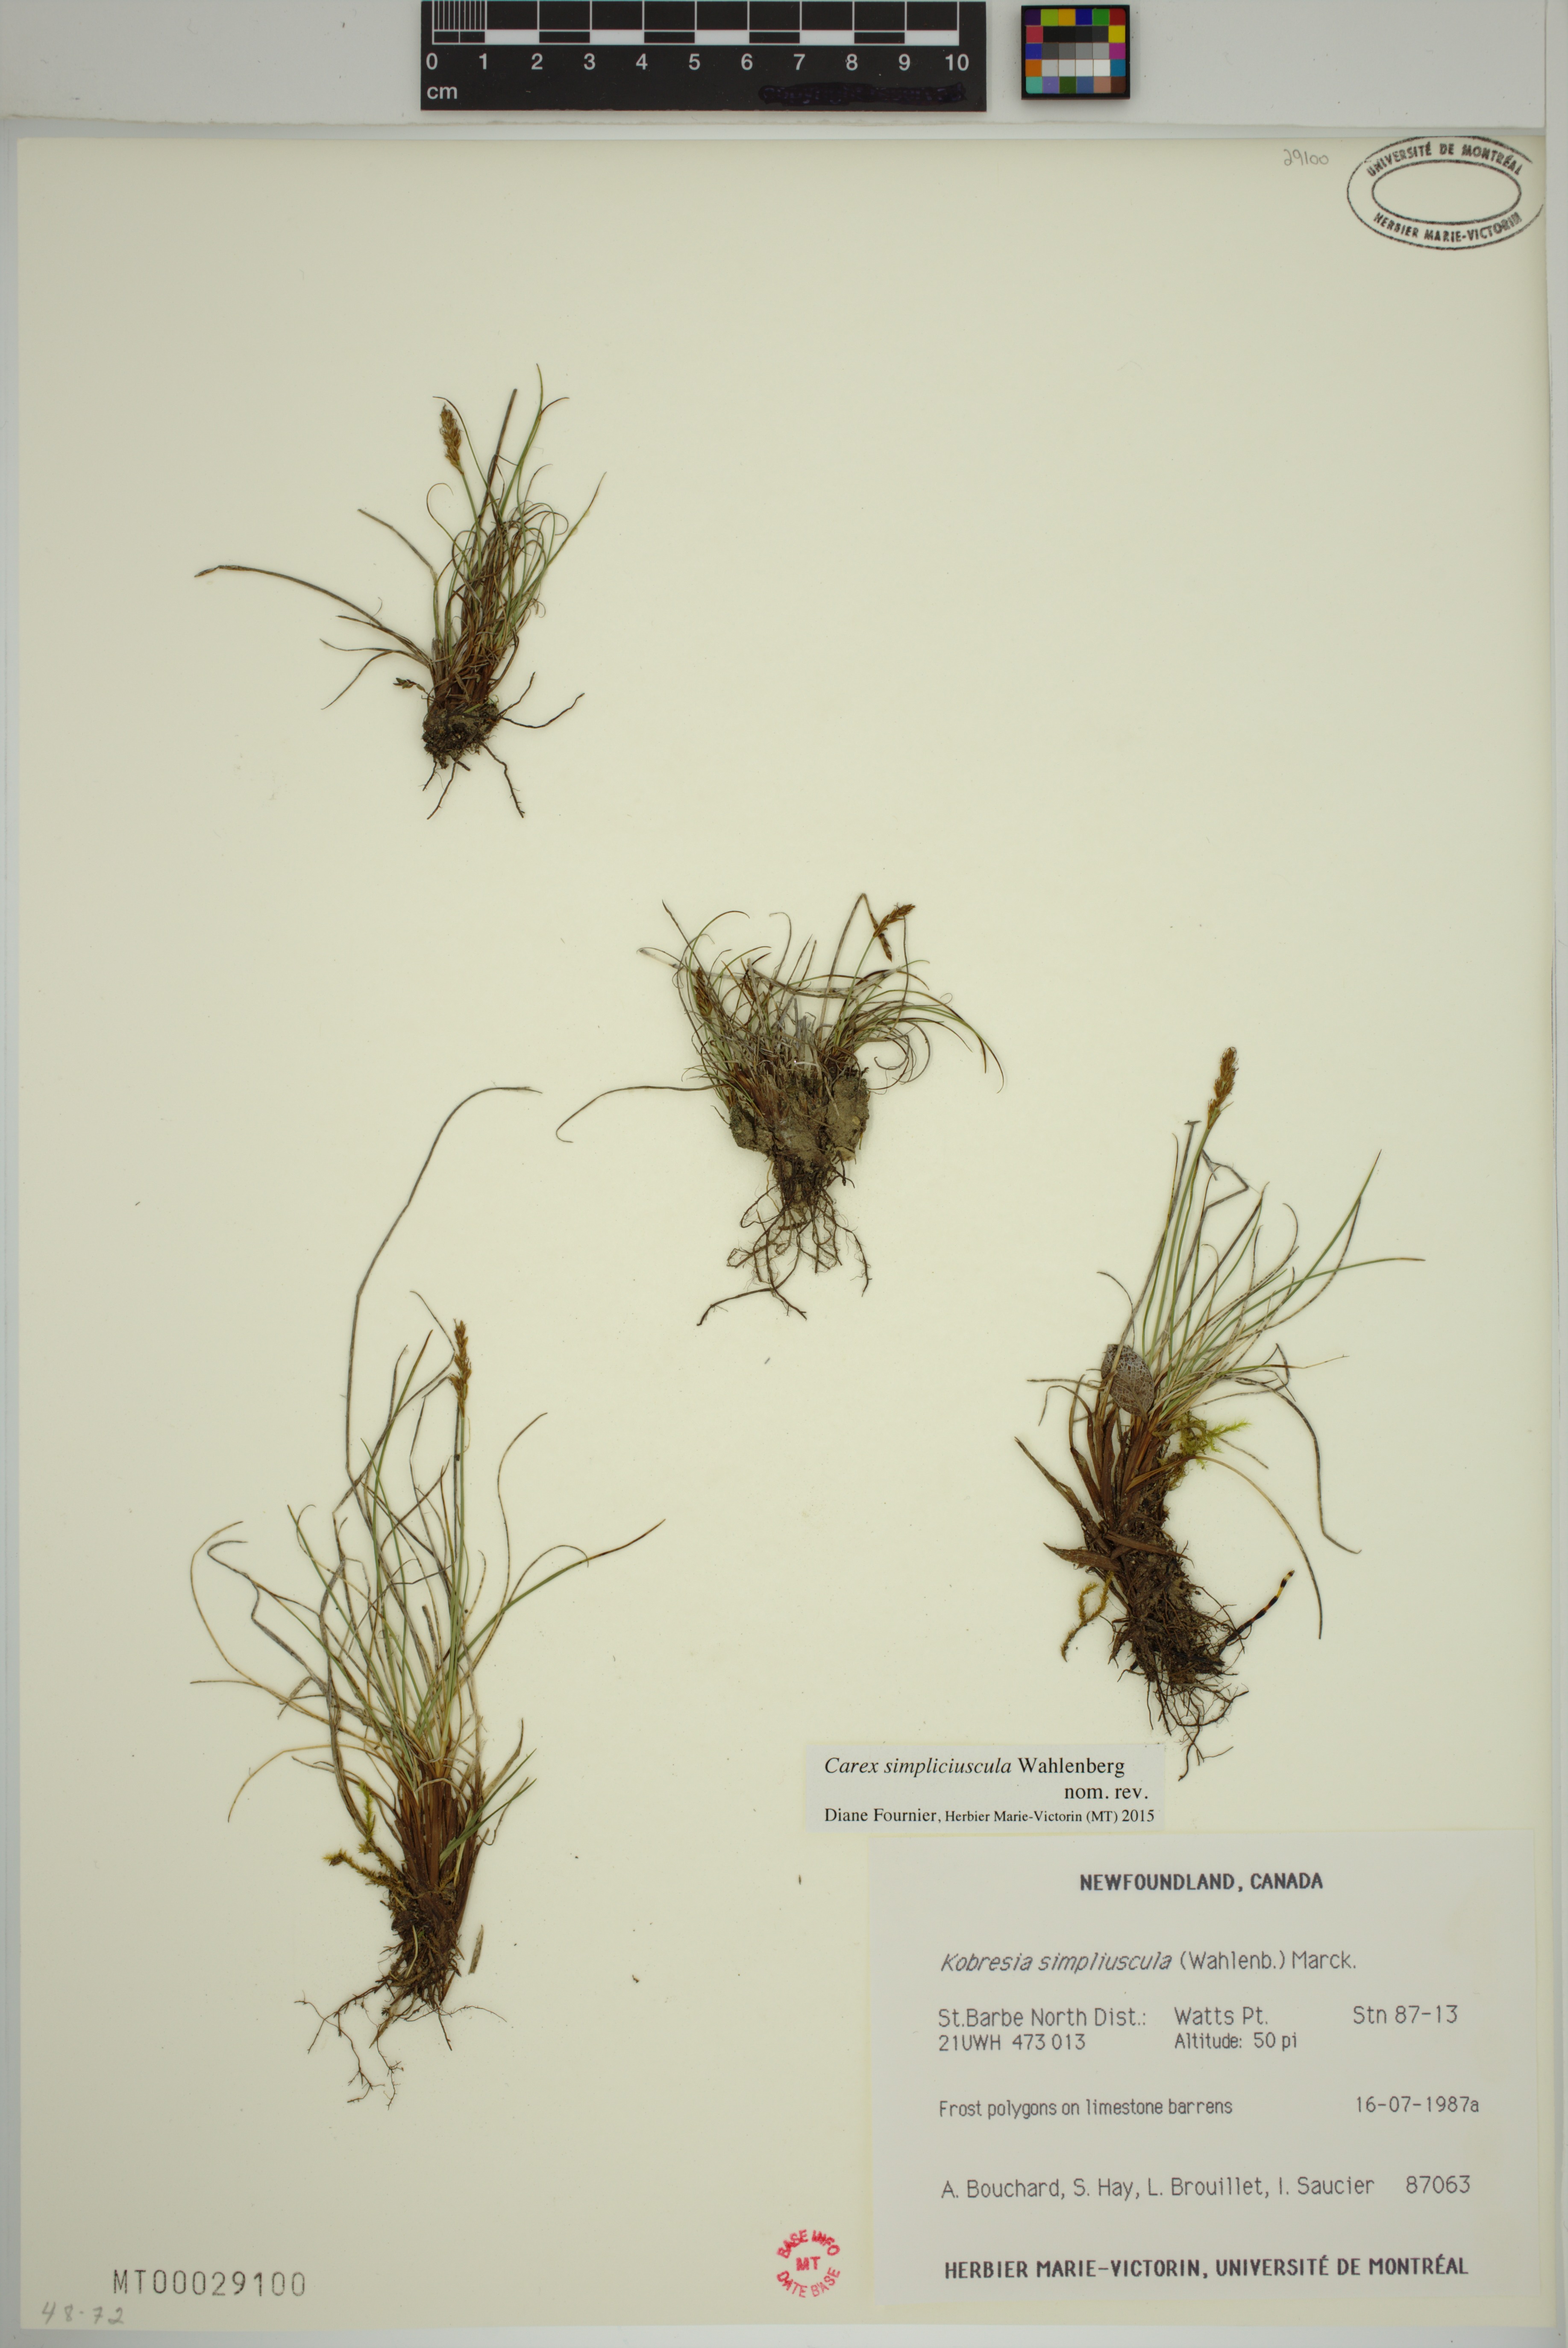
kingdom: Plantae
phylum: Tracheophyta
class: Liliopsida
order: Poales
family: Cyperaceae
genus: Carex
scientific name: Carex simpliciuscula
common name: Simple bog sedge
